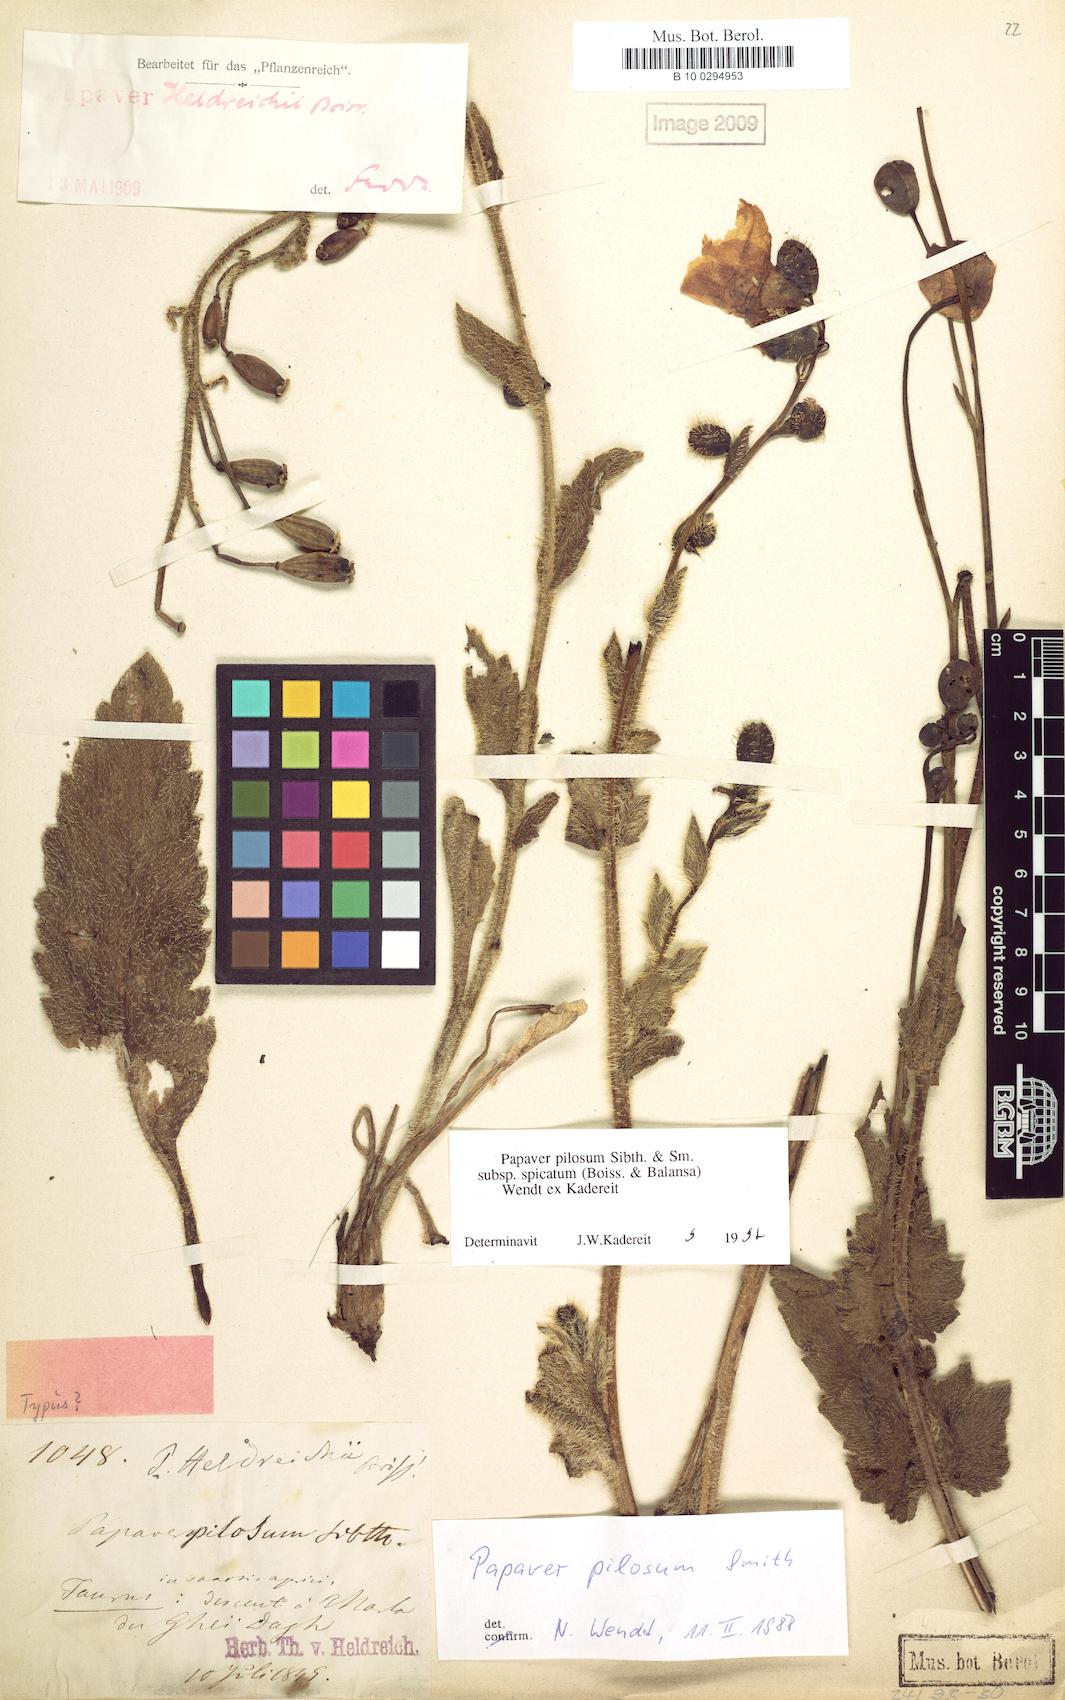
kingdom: Plantae
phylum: Tracheophyta
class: Magnoliopsida
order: Ranunculales
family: Papaveraceae
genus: Papaver
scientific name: Papaver pilosum
